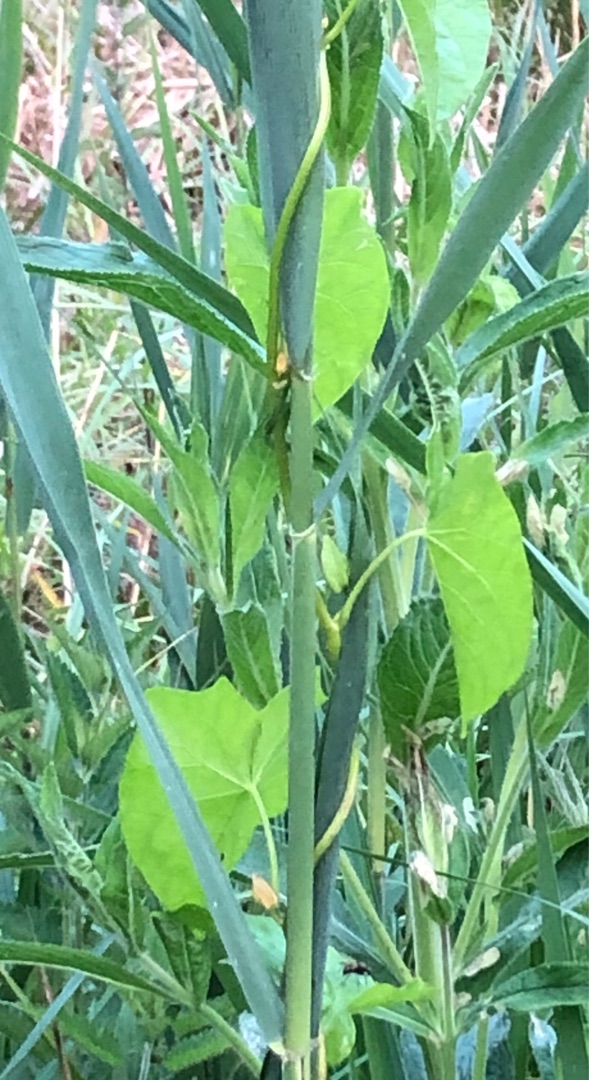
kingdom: Plantae
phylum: Tracheophyta
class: Magnoliopsida
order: Solanales
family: Convolvulaceae
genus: Calystegia
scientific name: Calystegia sepium
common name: Gærde-snerle
